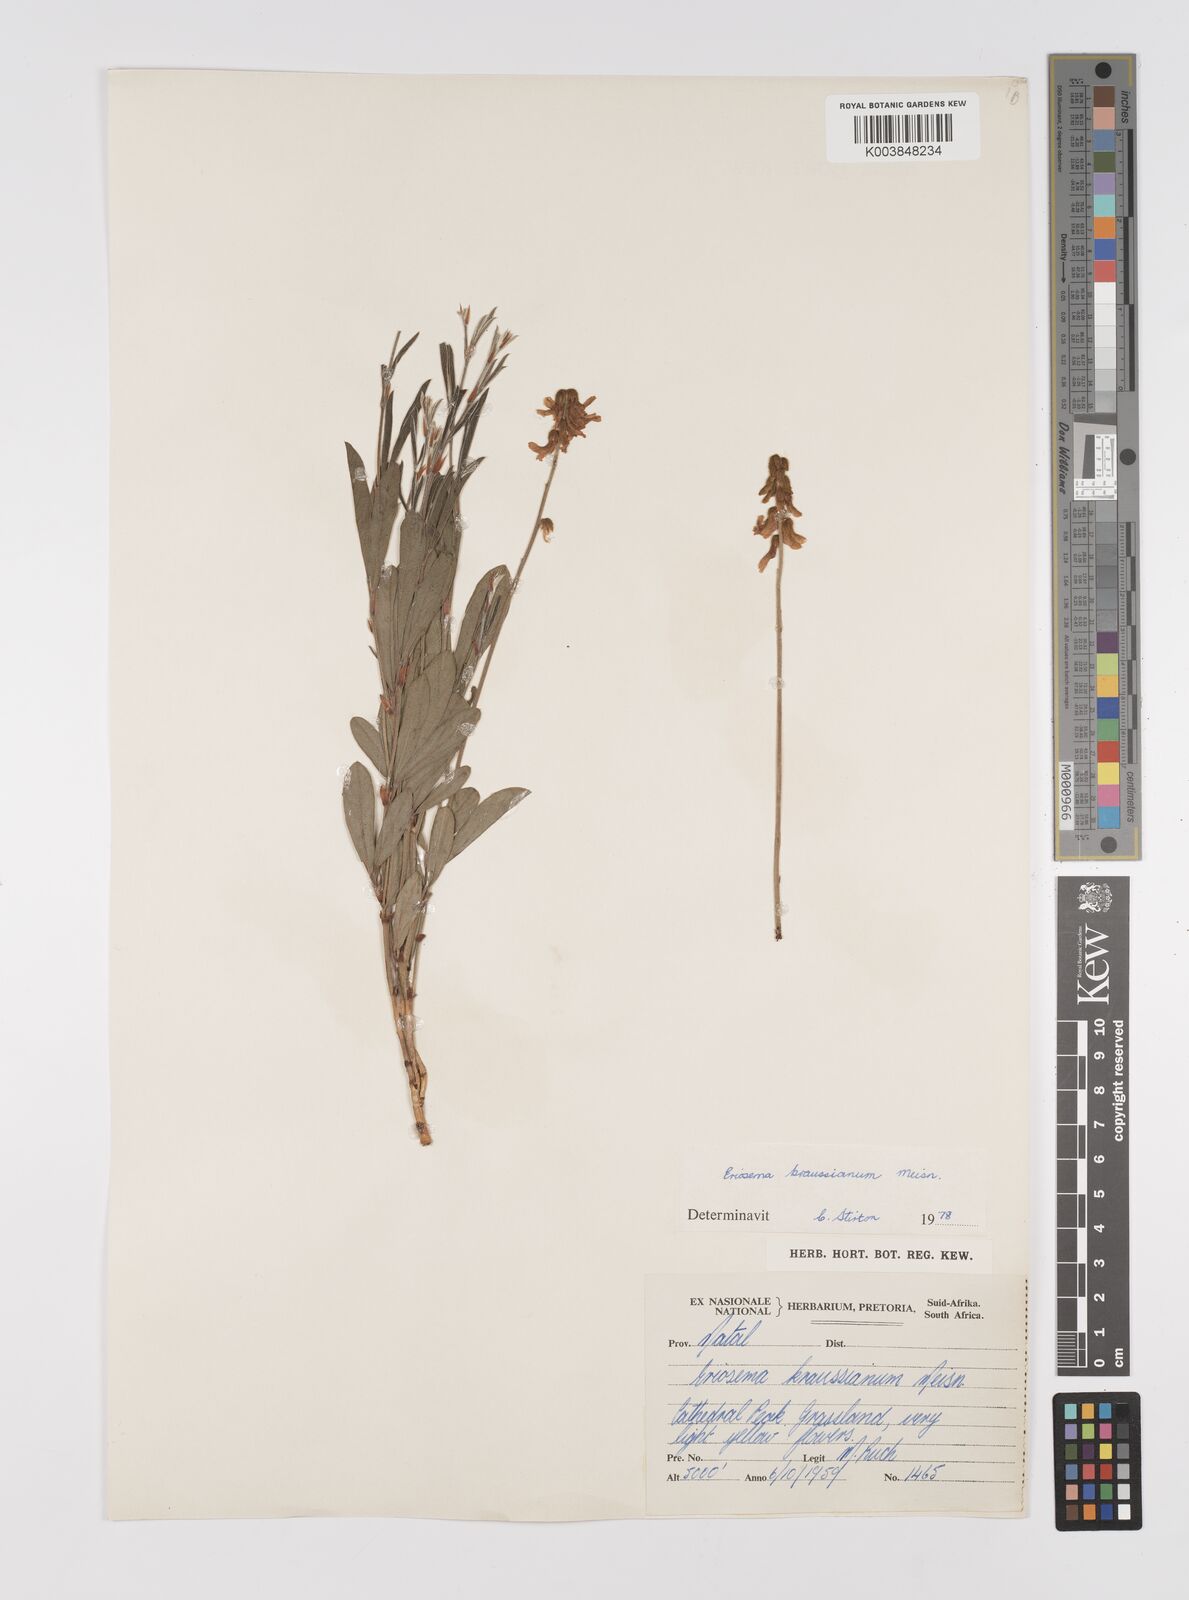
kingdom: Plantae
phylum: Tracheophyta
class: Magnoliopsida
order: Fabales
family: Fabaceae
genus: Eriosema
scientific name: Eriosema kraussianum
